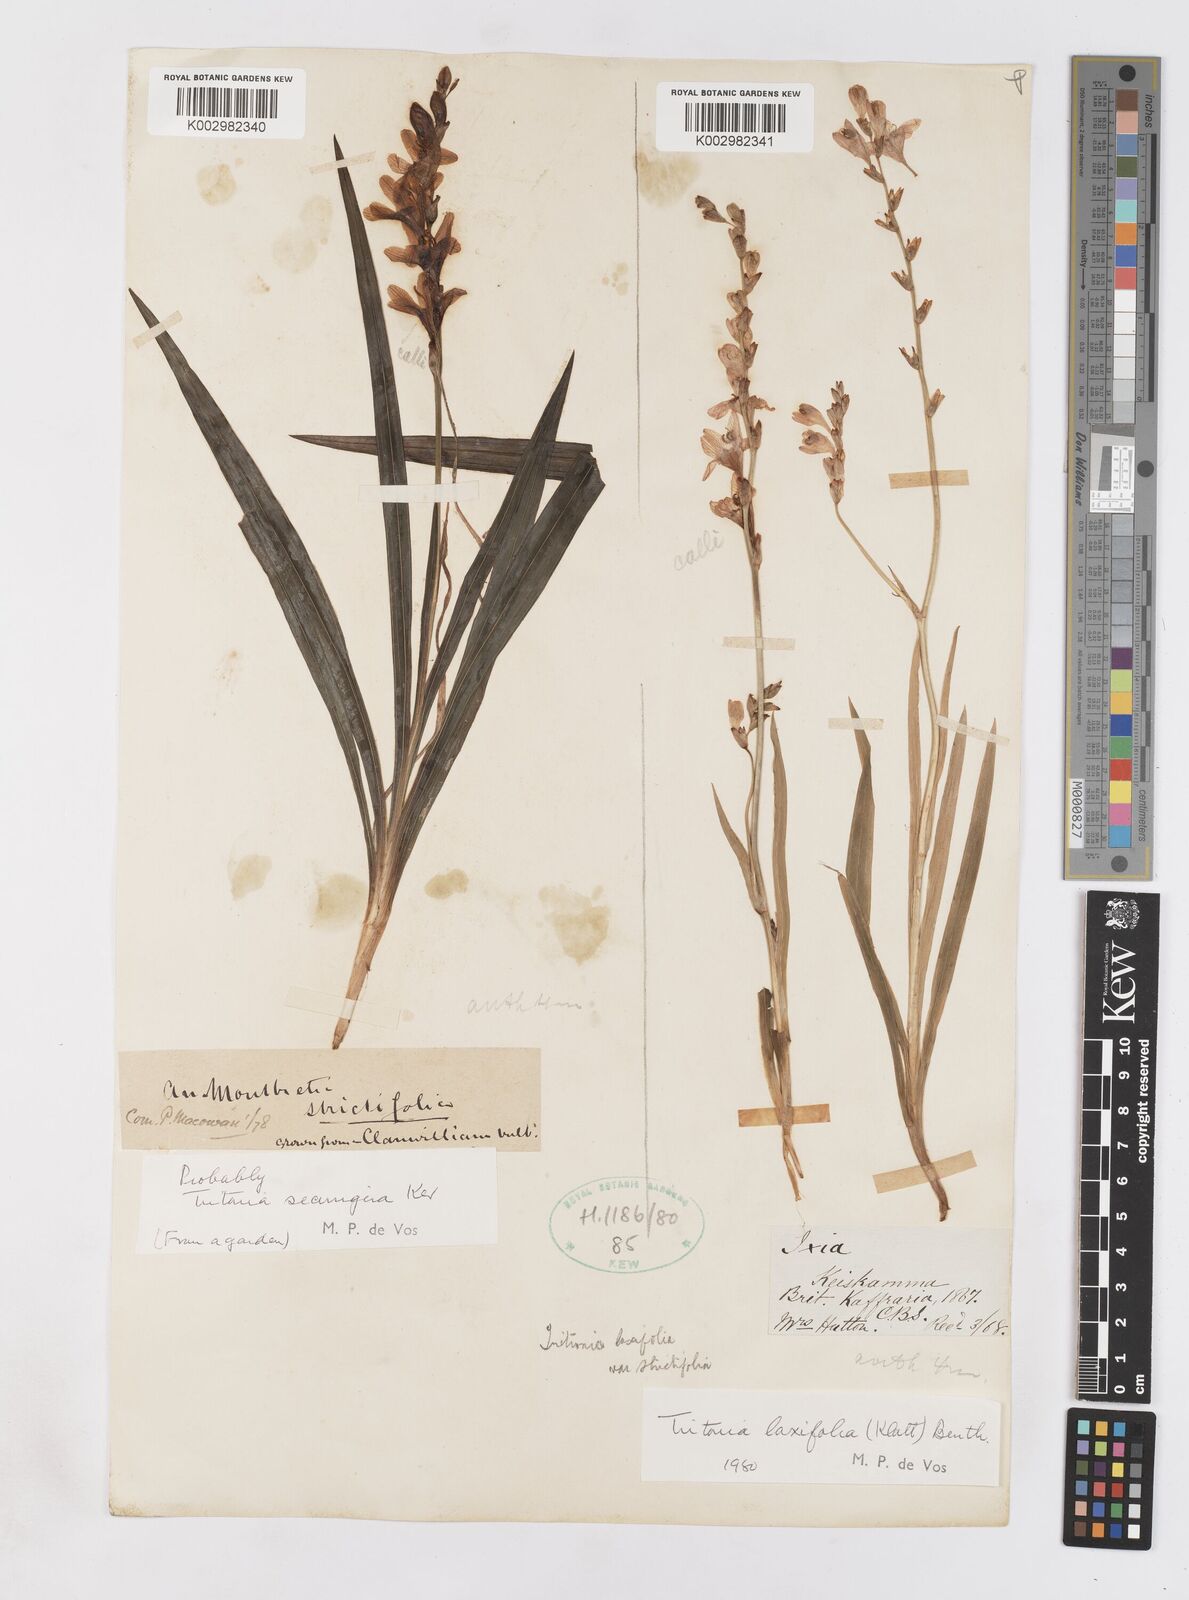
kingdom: Plantae
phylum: Tracheophyta
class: Liliopsida
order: Asparagales
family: Iridaceae
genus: Tritonia
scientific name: Tritonia laxifolia
